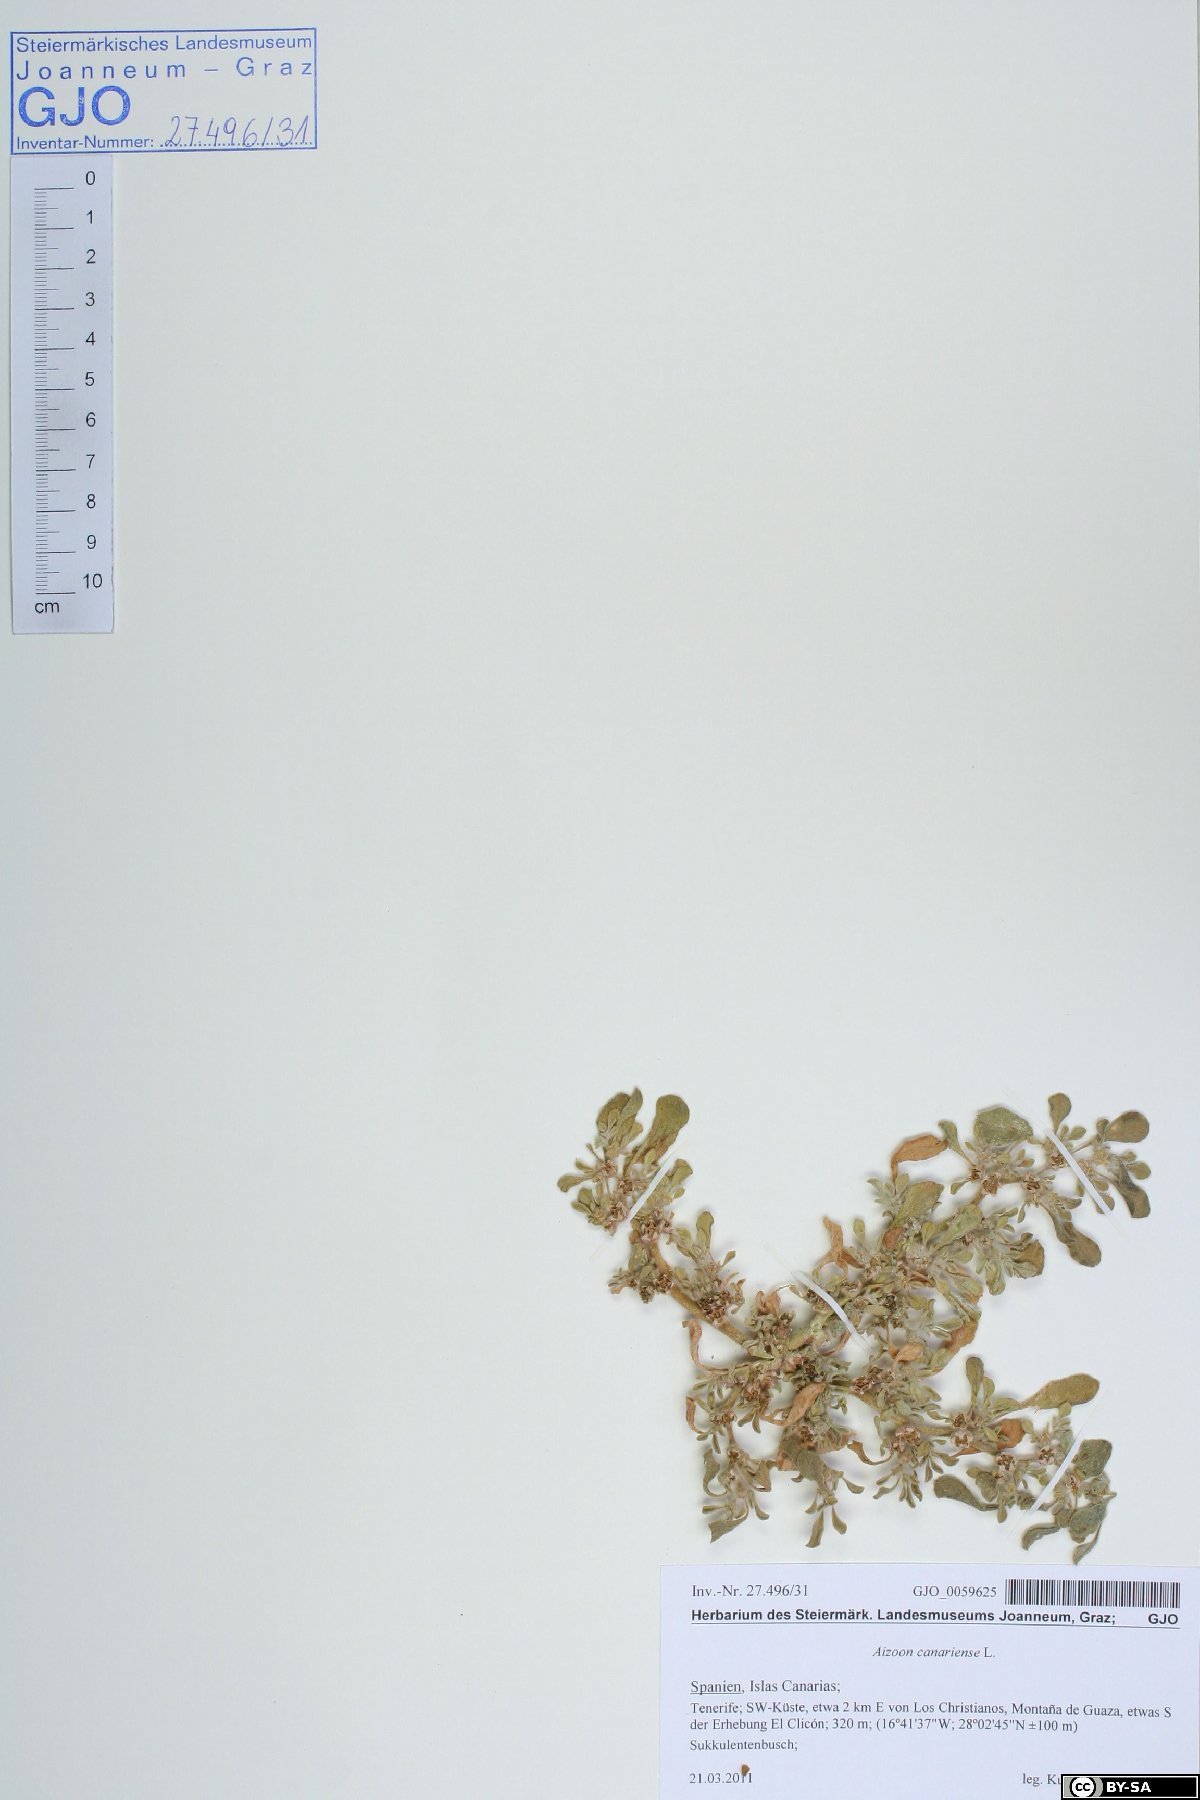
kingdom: Plantae
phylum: Tracheophyta
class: Magnoliopsida
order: Caryophyllales
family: Aizoaceae
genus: Aizoon
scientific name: Aizoon canariense
